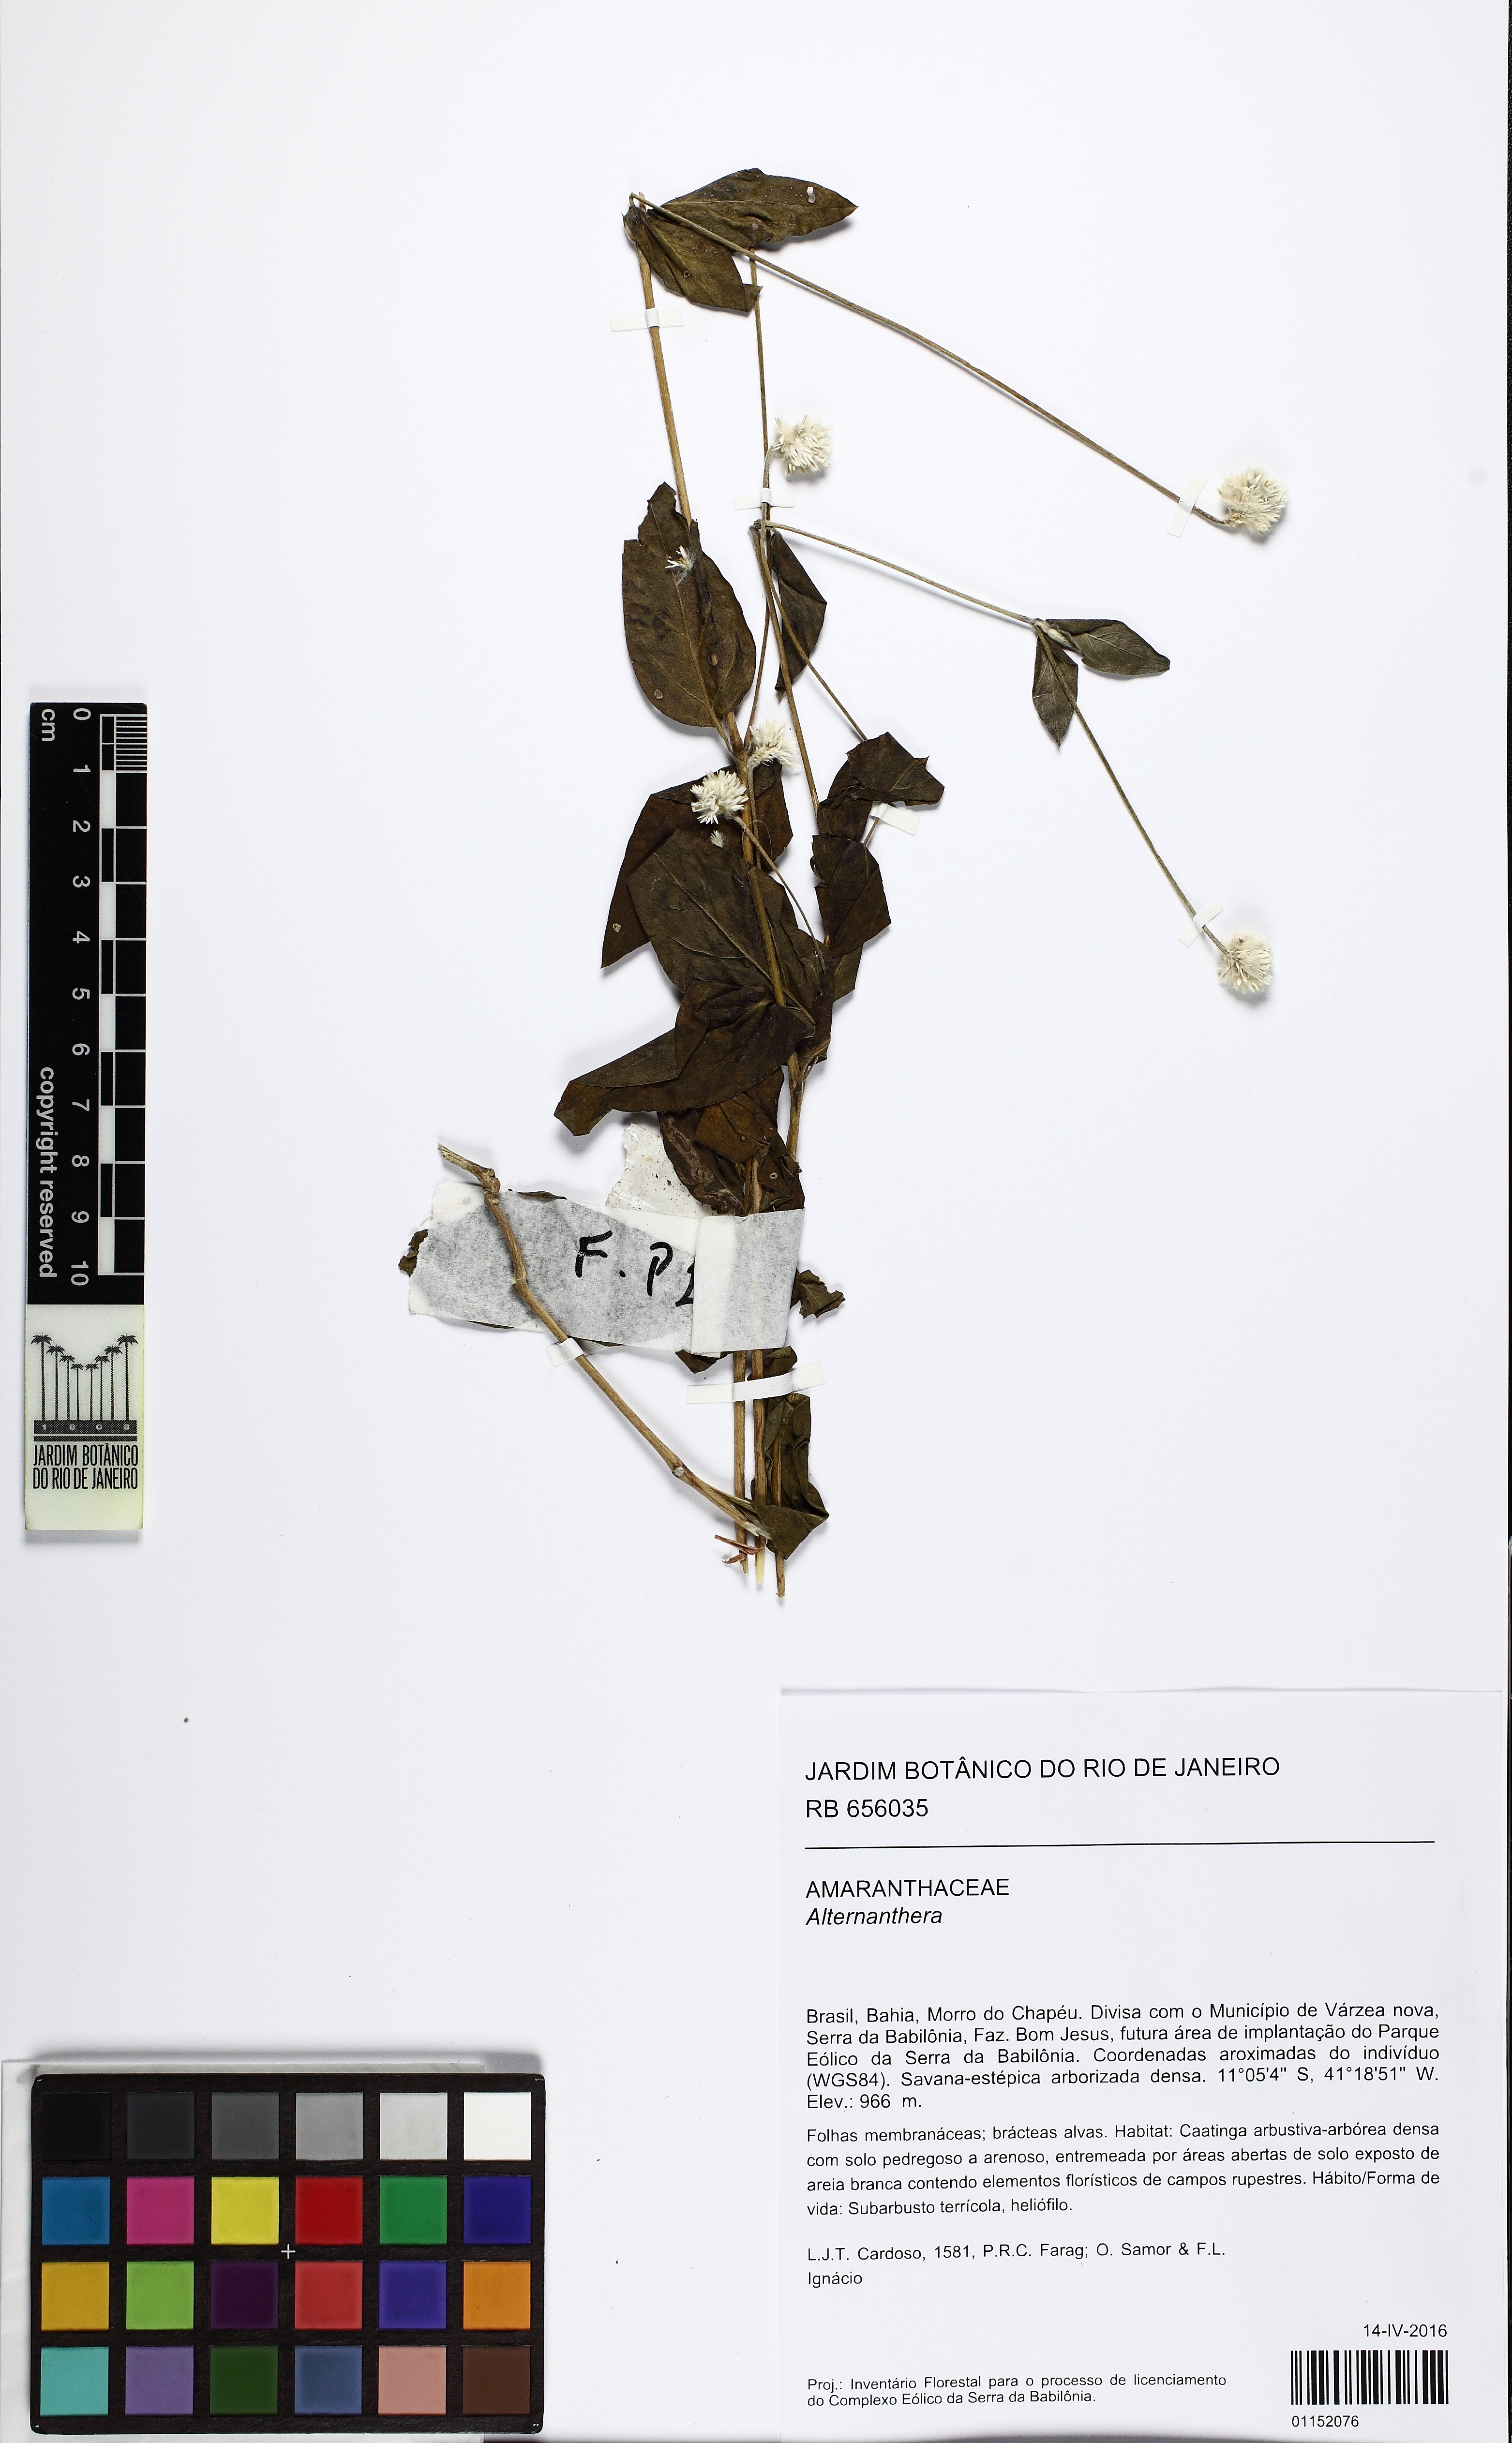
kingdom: Plantae
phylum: Tracheophyta
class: Magnoliopsida
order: Caryophyllales
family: Amaranthaceae
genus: Alternanthera
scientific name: Alternanthera
